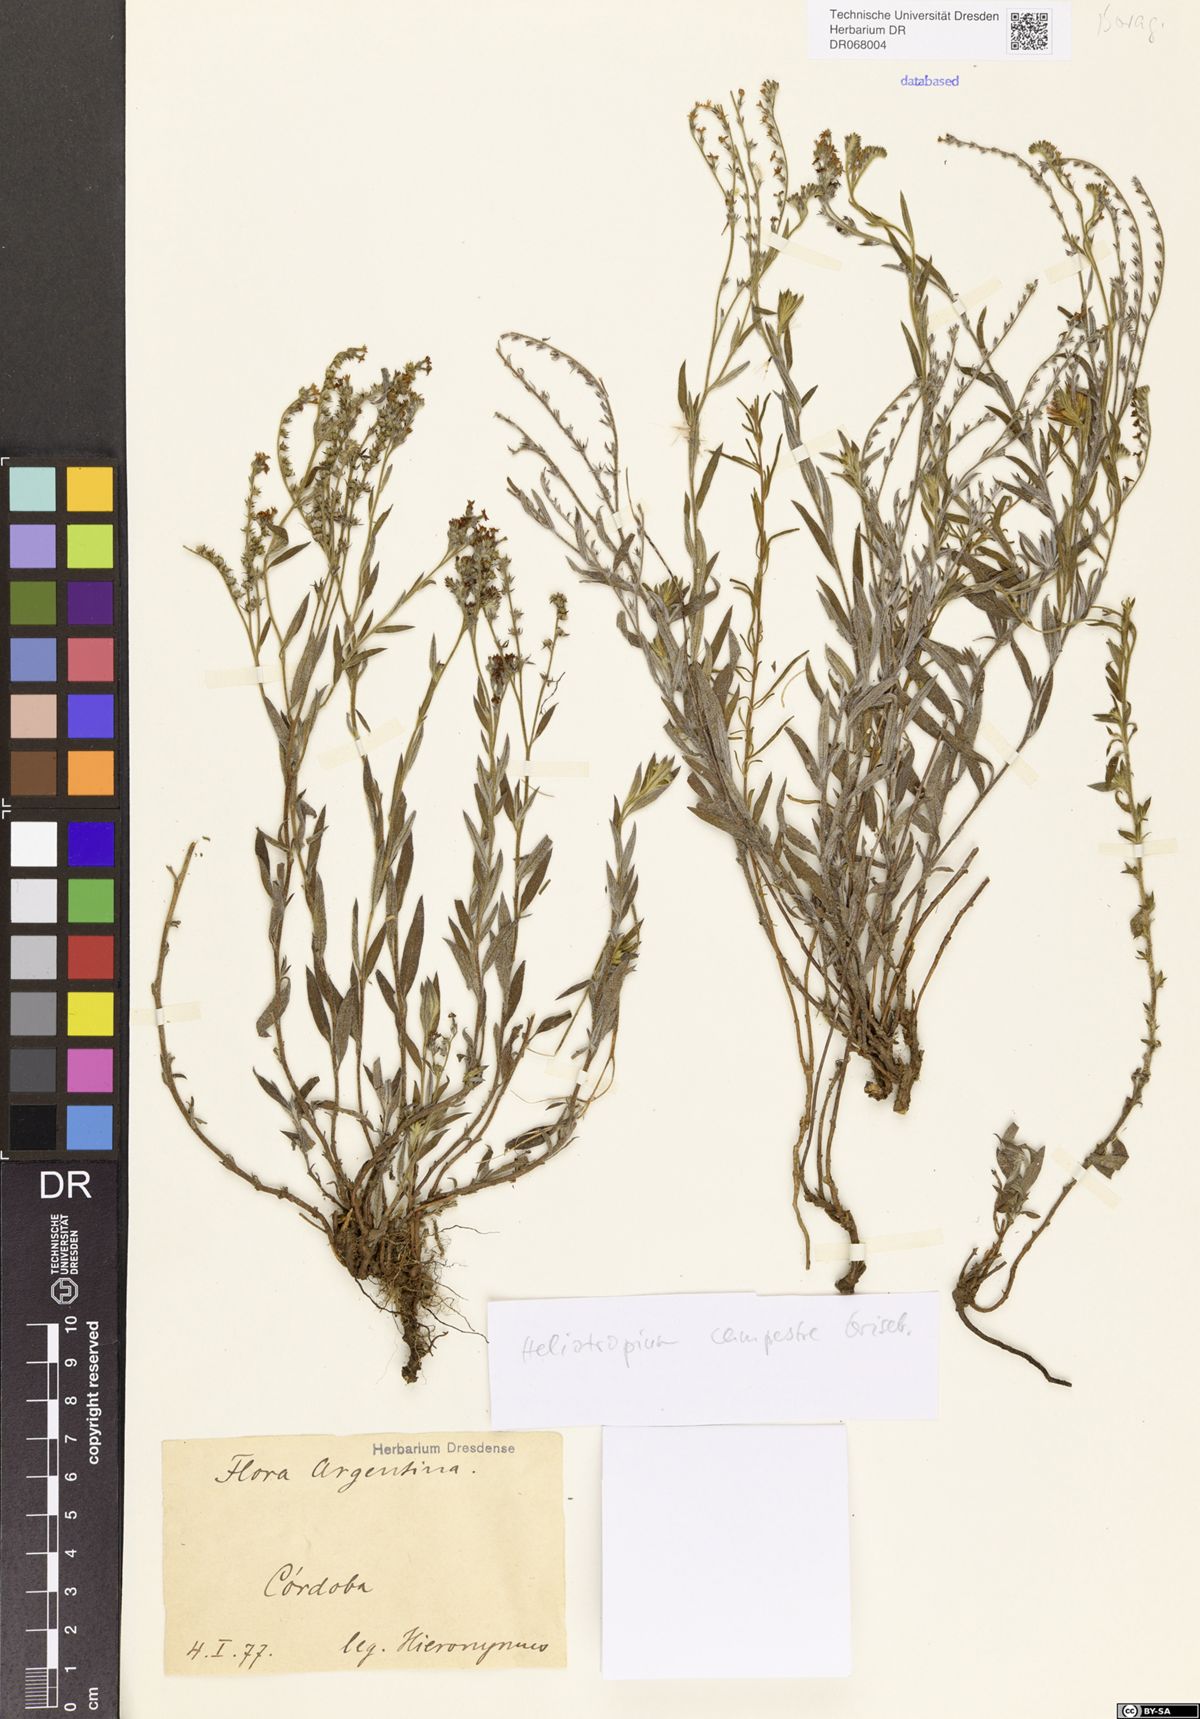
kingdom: Plantae
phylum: Tracheophyta
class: Magnoliopsida
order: Boraginales
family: Heliotropiaceae
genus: Euploca
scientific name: Euploca campestris
